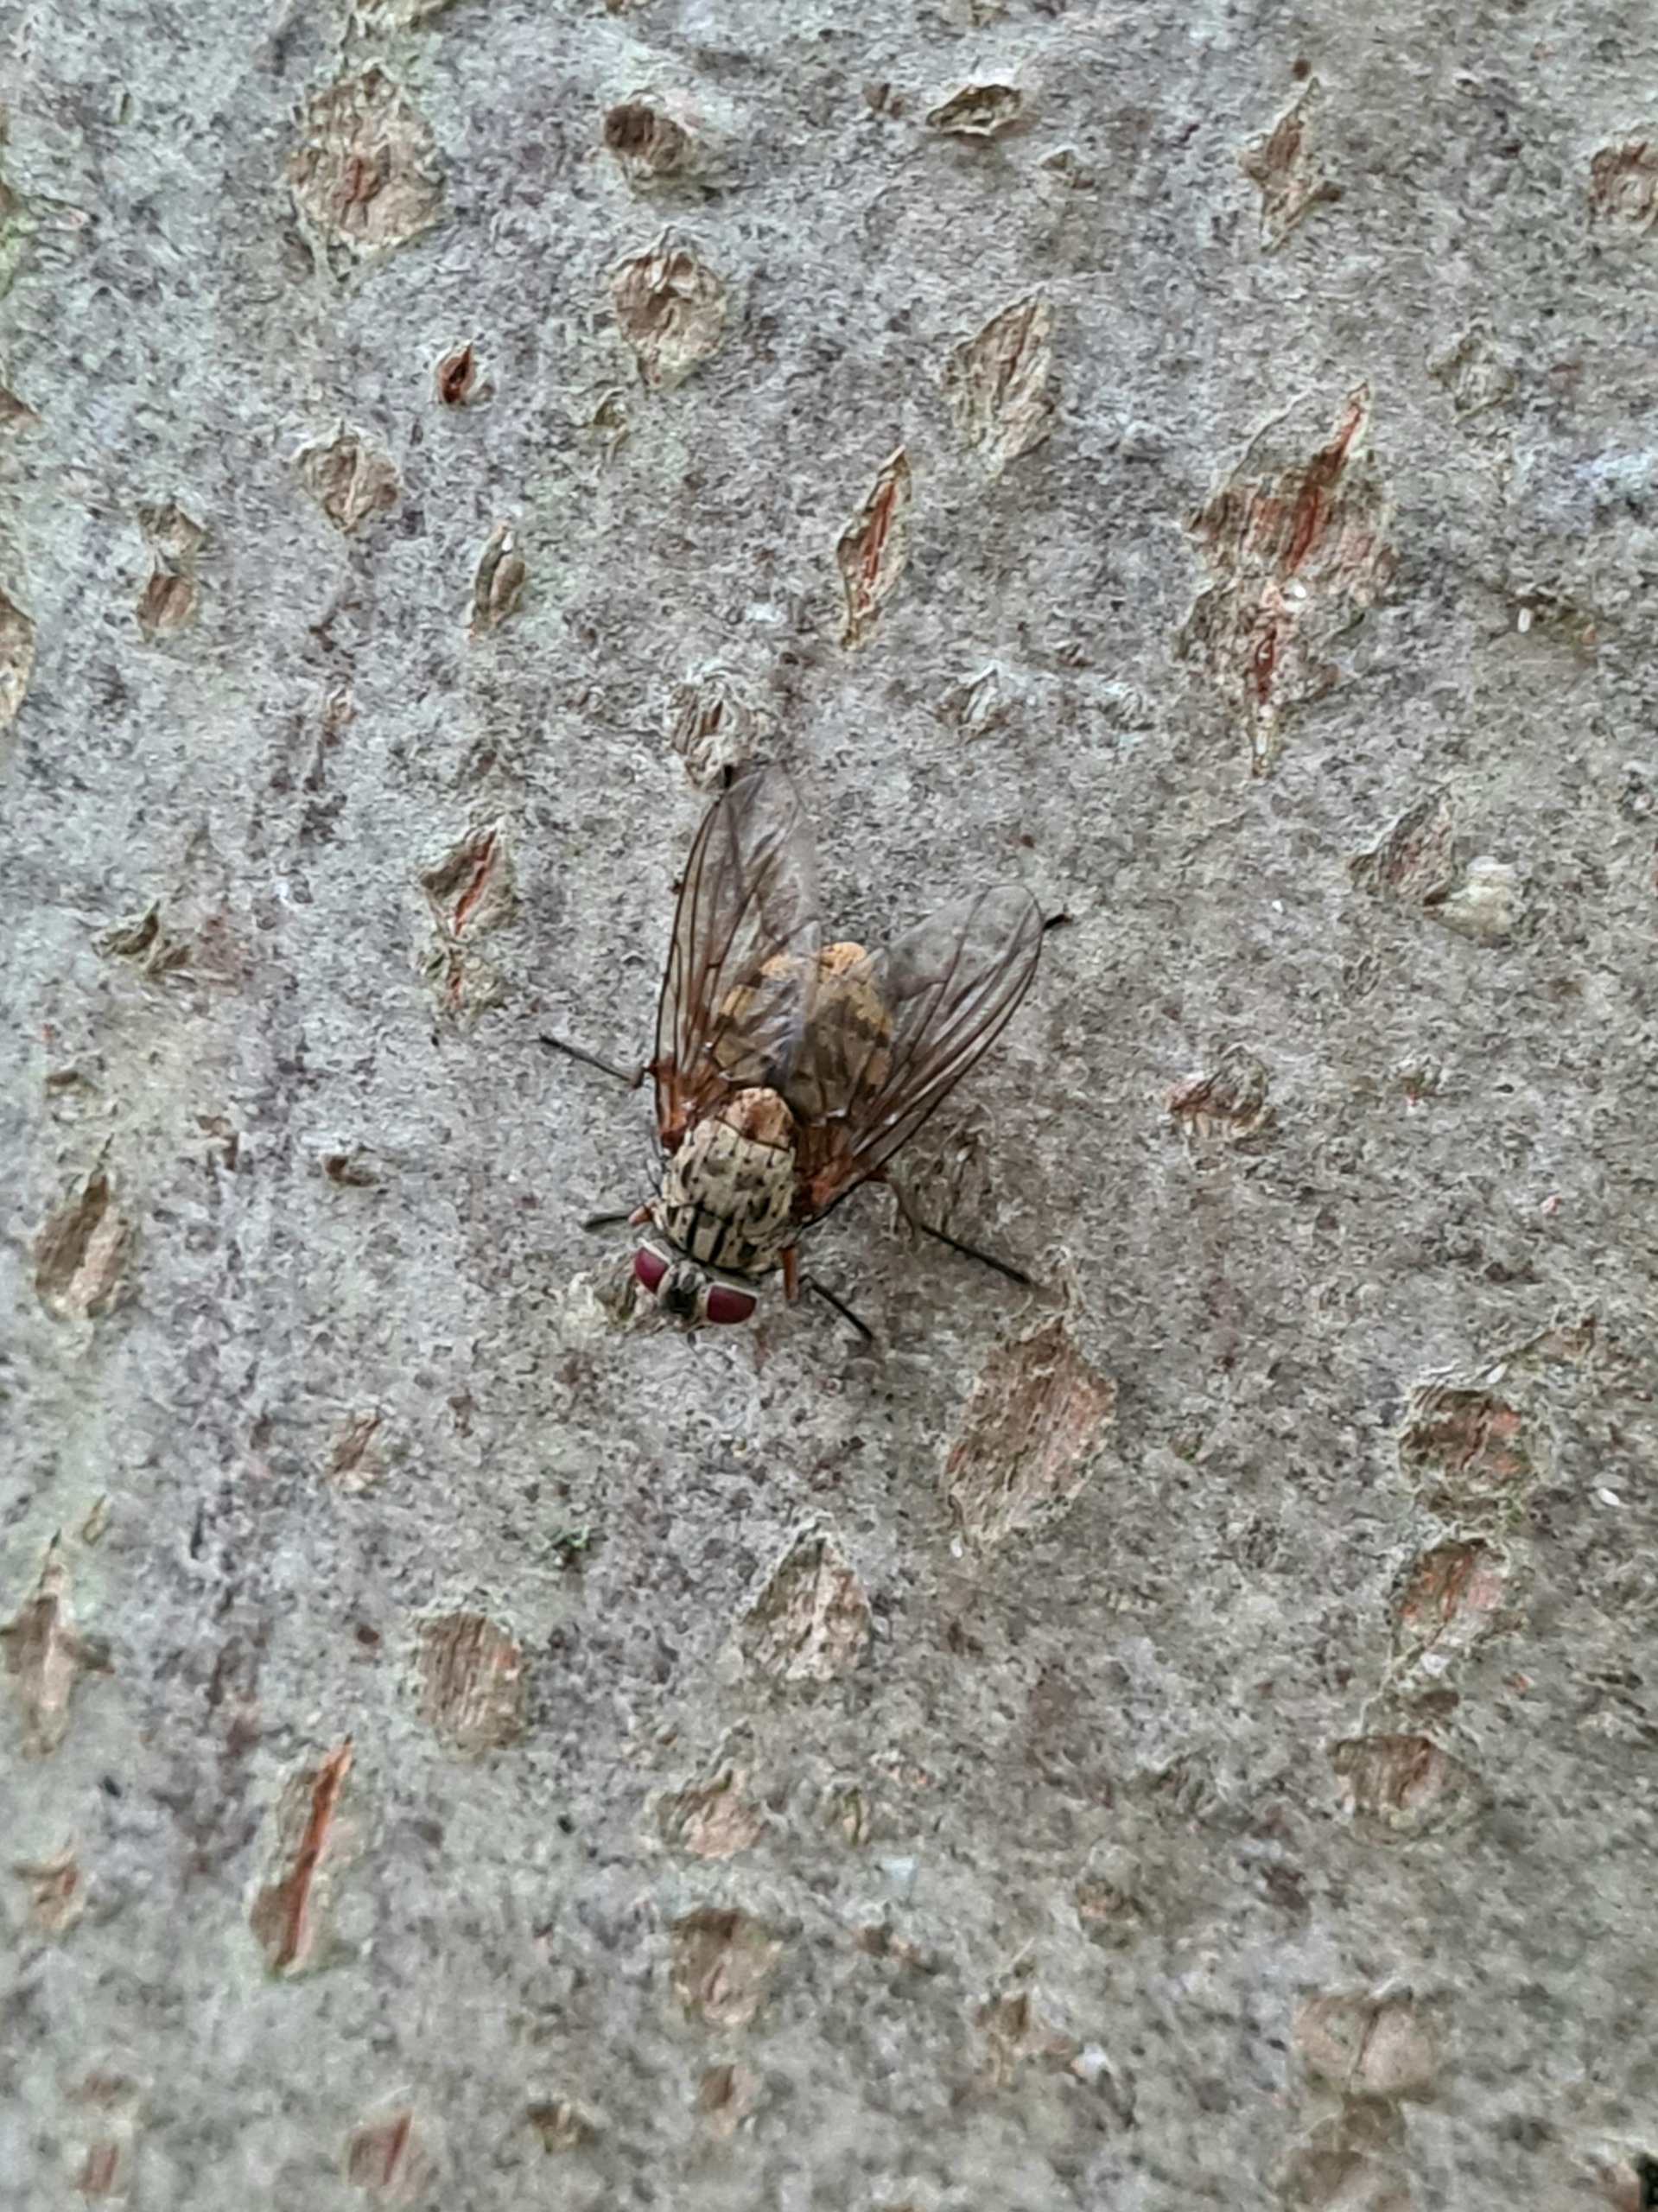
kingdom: Animalia
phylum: Arthropoda
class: Insecta
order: Diptera
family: Muscidae
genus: Phaonia
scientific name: Phaonia valida
